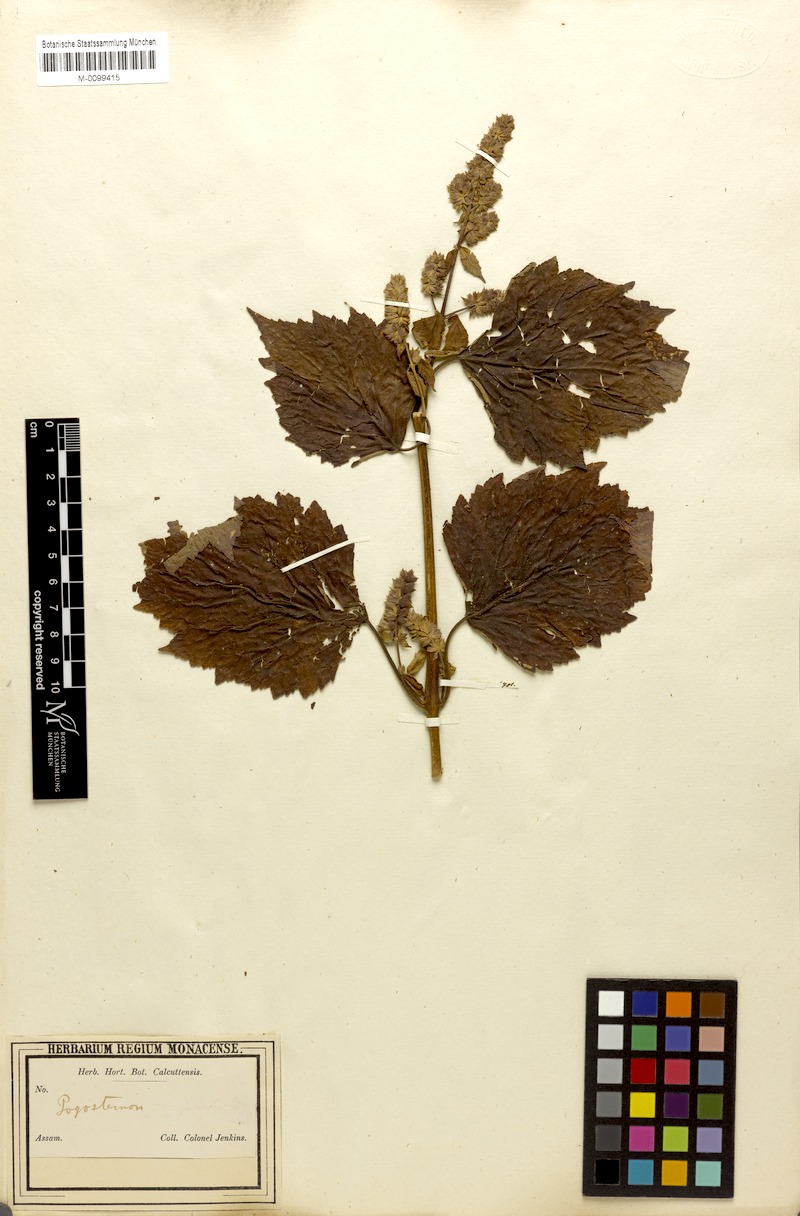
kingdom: Plantae
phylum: Tracheophyta
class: Magnoliopsida
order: Lamiales
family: Lamiaceae
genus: Pogostemon
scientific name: Pogostemon parviflorus
